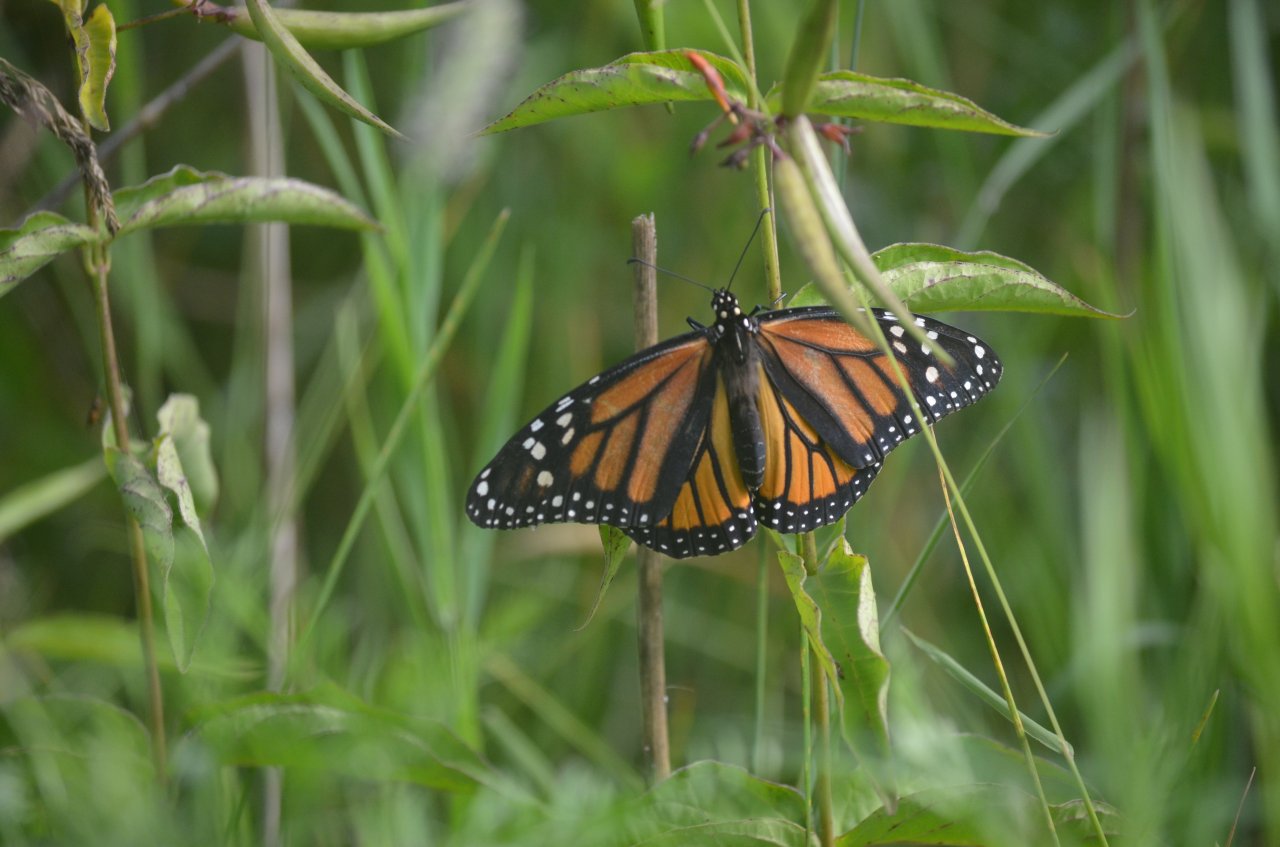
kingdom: Animalia
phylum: Arthropoda
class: Insecta
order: Lepidoptera
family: Nymphalidae
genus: Danaus
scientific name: Danaus plexippus
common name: Monarch
